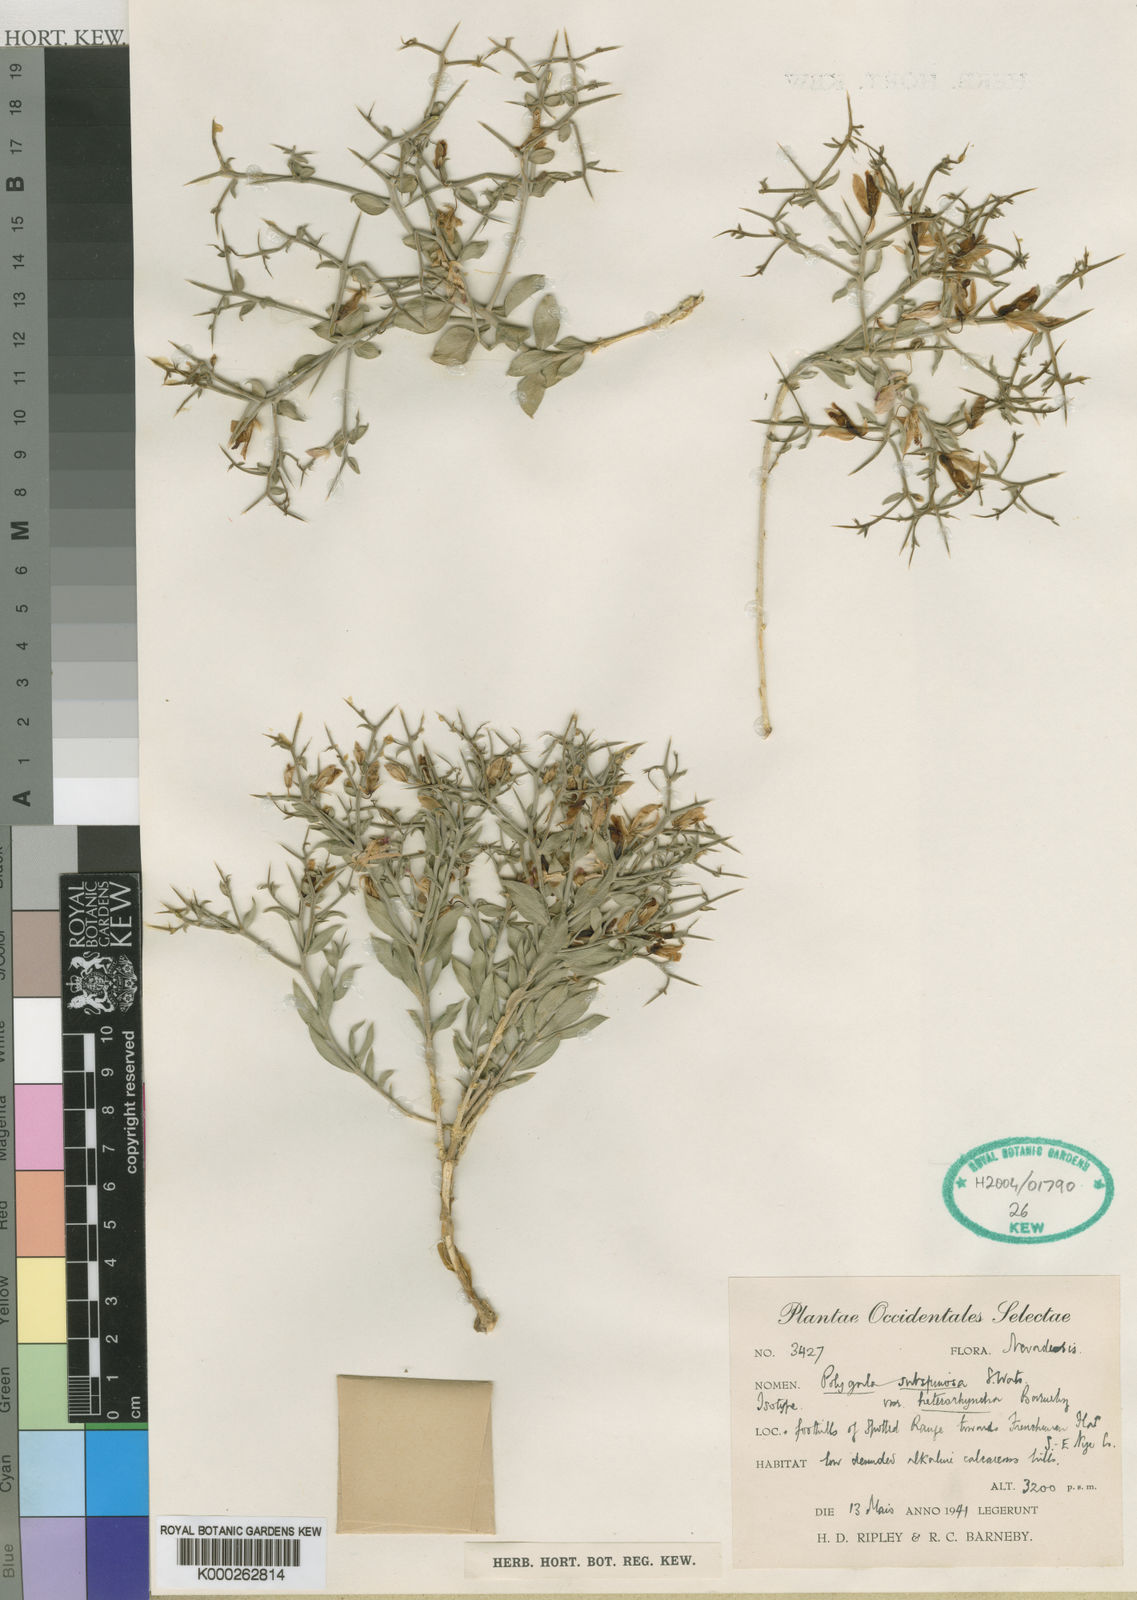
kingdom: Plantae
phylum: Tracheophyta
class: Magnoliopsida
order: Fabales
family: Polygalaceae
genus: Rhinotropis
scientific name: Rhinotropis subspinosa
